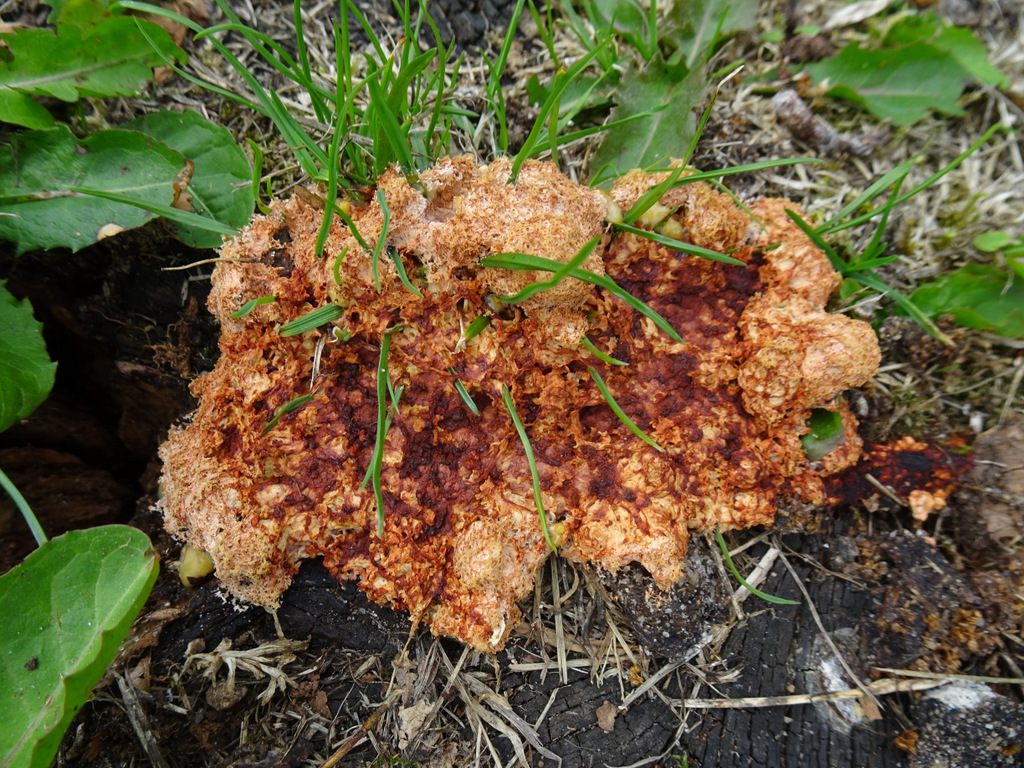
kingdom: Protozoa
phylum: Mycetozoa
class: Myxomycetes
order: Physarales
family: Physaraceae
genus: Fuligo
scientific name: Fuligo septica
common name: Dog vomit slime mold
